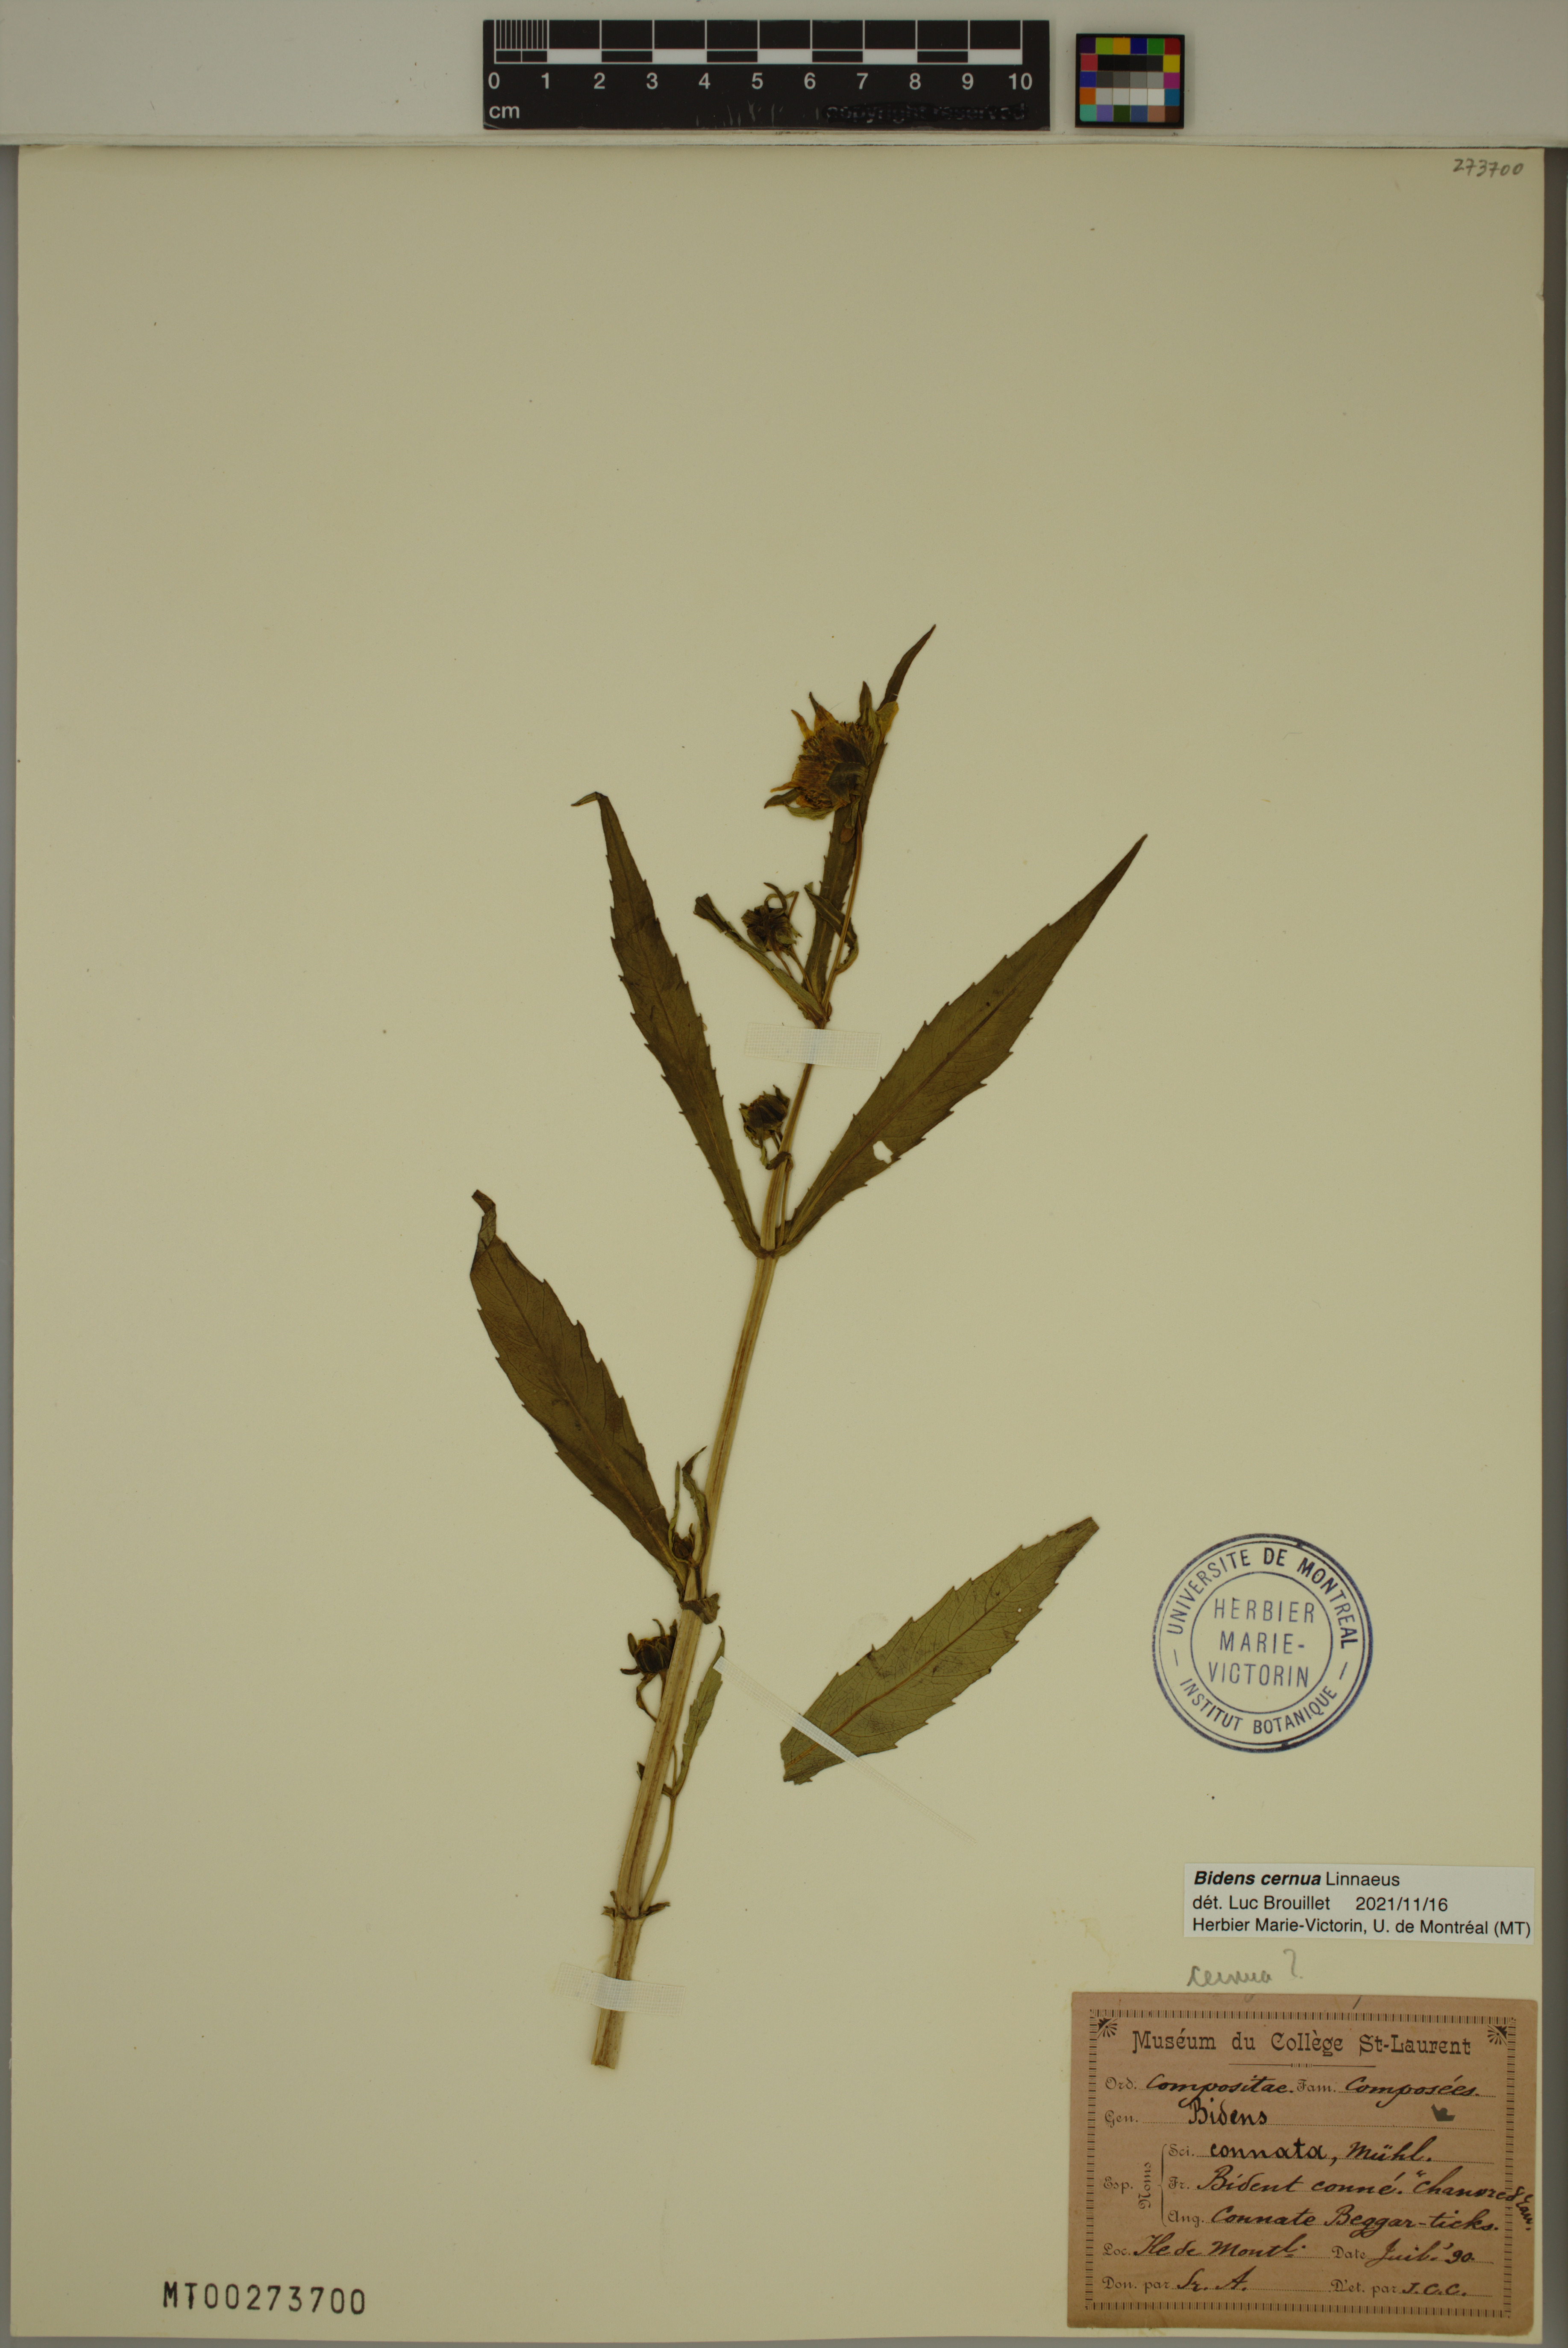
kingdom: Plantae
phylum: Tracheophyta
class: Magnoliopsida
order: Asterales
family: Asteraceae
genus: Bidens
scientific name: Bidens cernua
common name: Nodding bur-marigold
